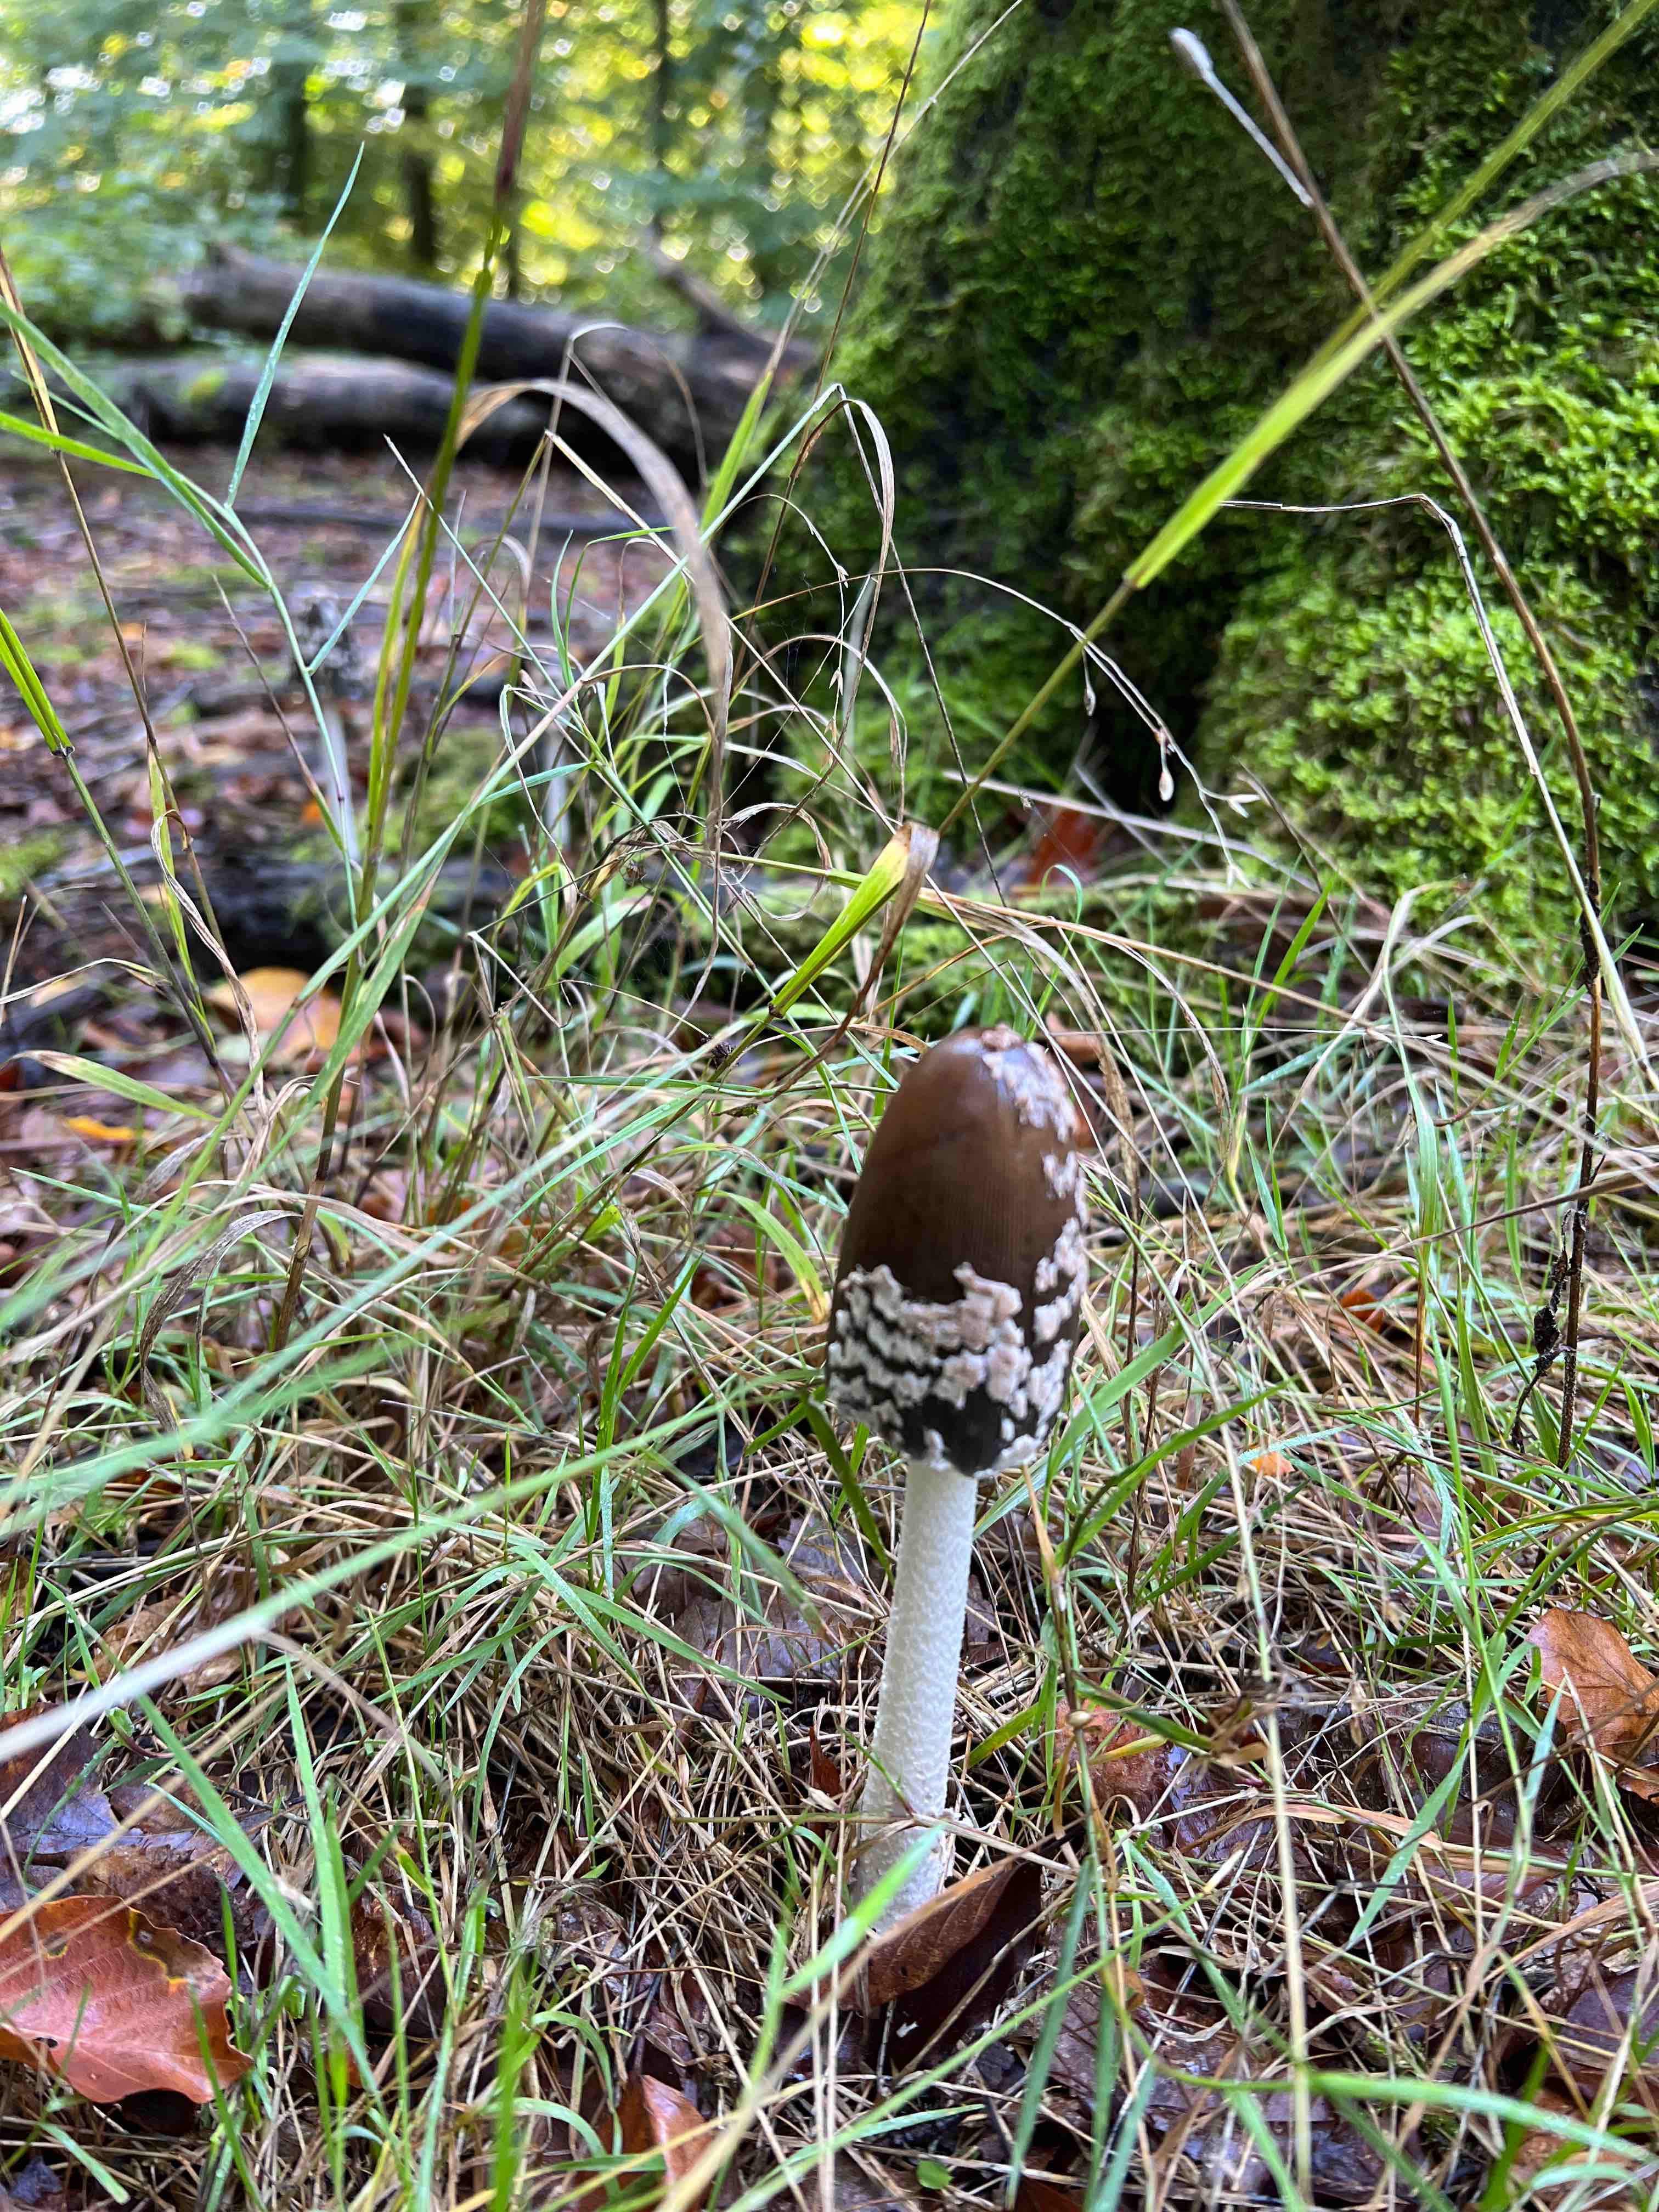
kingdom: Fungi
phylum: Basidiomycota
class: Agaricomycetes
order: Agaricales
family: Psathyrellaceae
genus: Coprinopsis
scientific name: Coprinopsis picacea
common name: skade-blækhat
